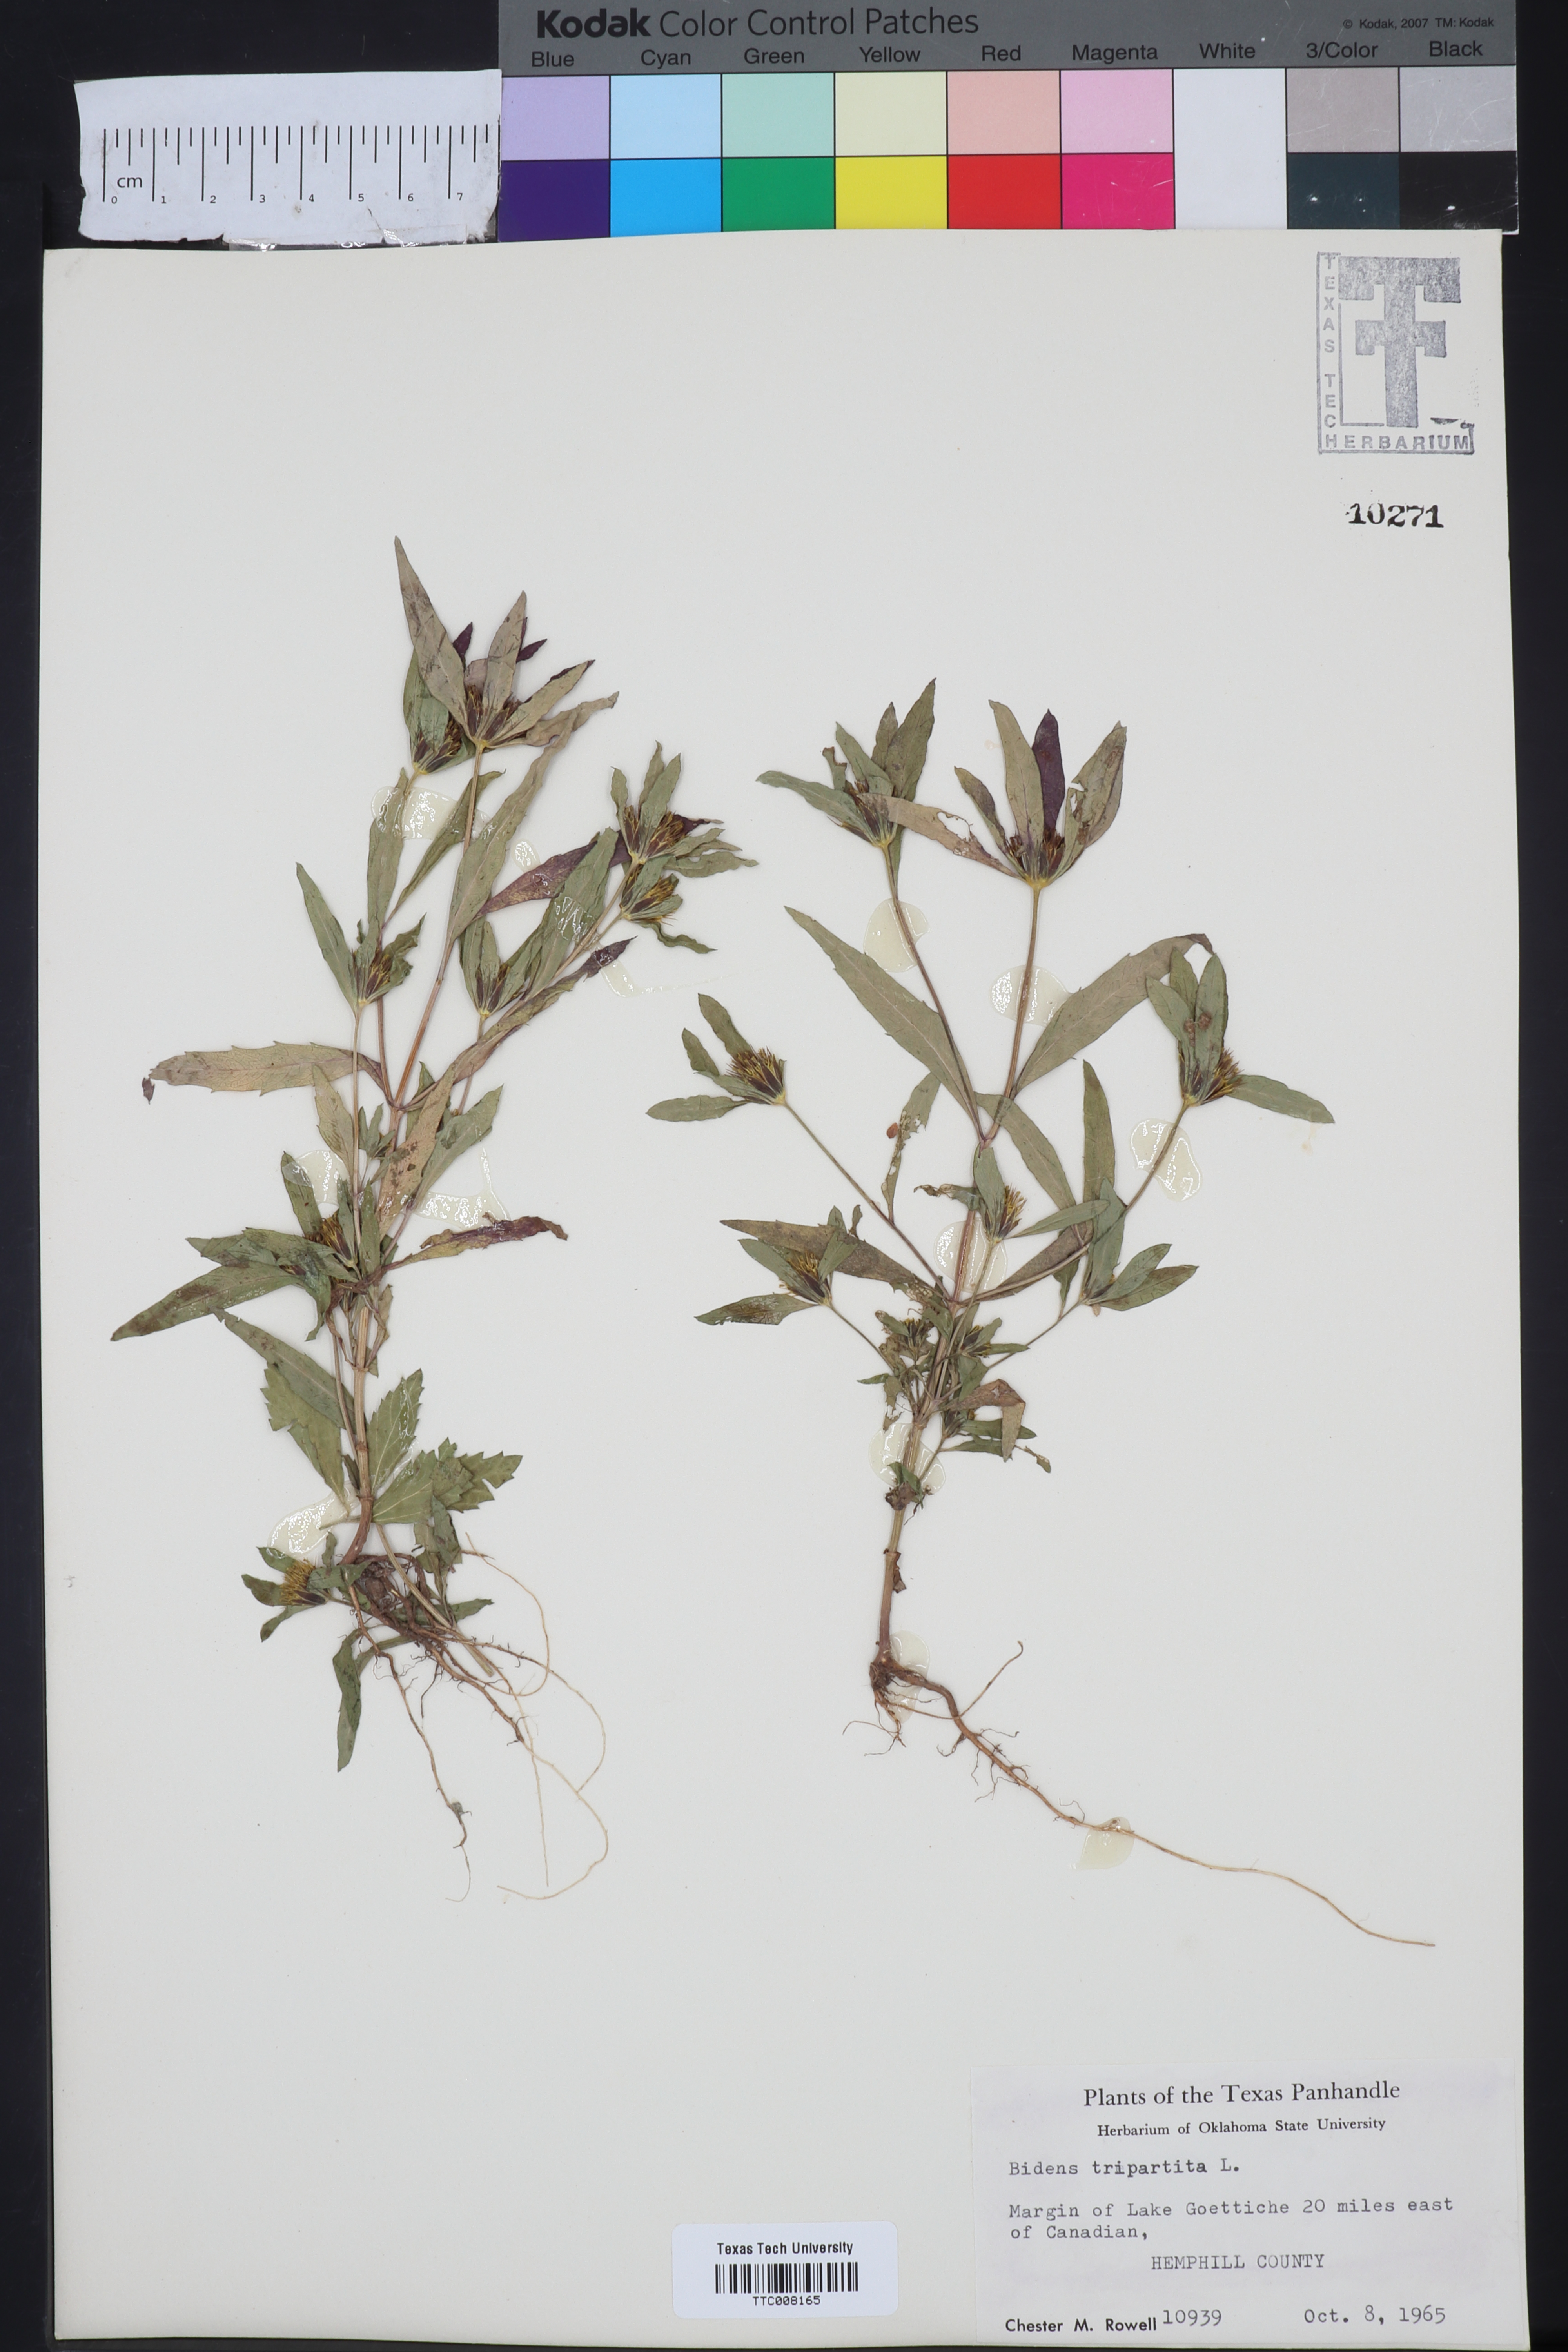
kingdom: Plantae
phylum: Tracheophyta
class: Magnoliopsida
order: Asterales
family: Asteraceae
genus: Bidens
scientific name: Bidens tripartita
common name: Trifid bur-marigold
